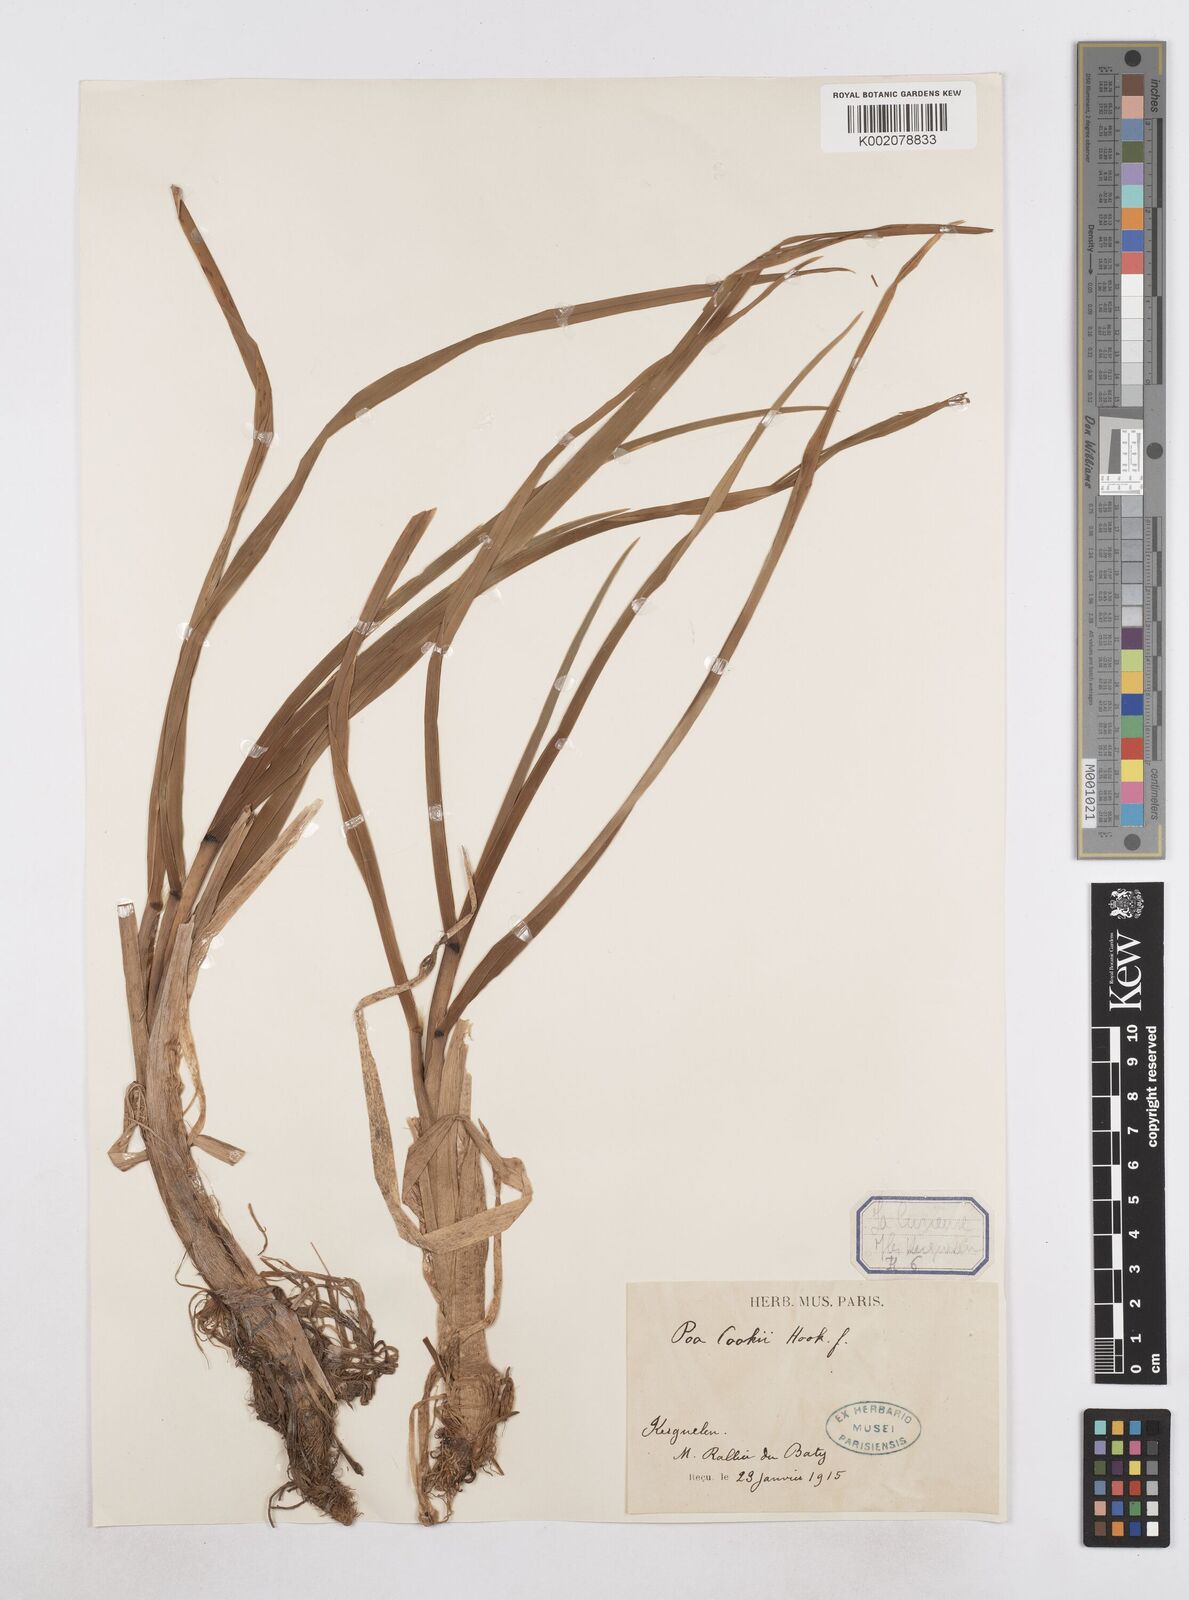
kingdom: Plantae
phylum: Tracheophyta
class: Liliopsida
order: Poales
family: Poaceae
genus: Poa
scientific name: Poa cookii
